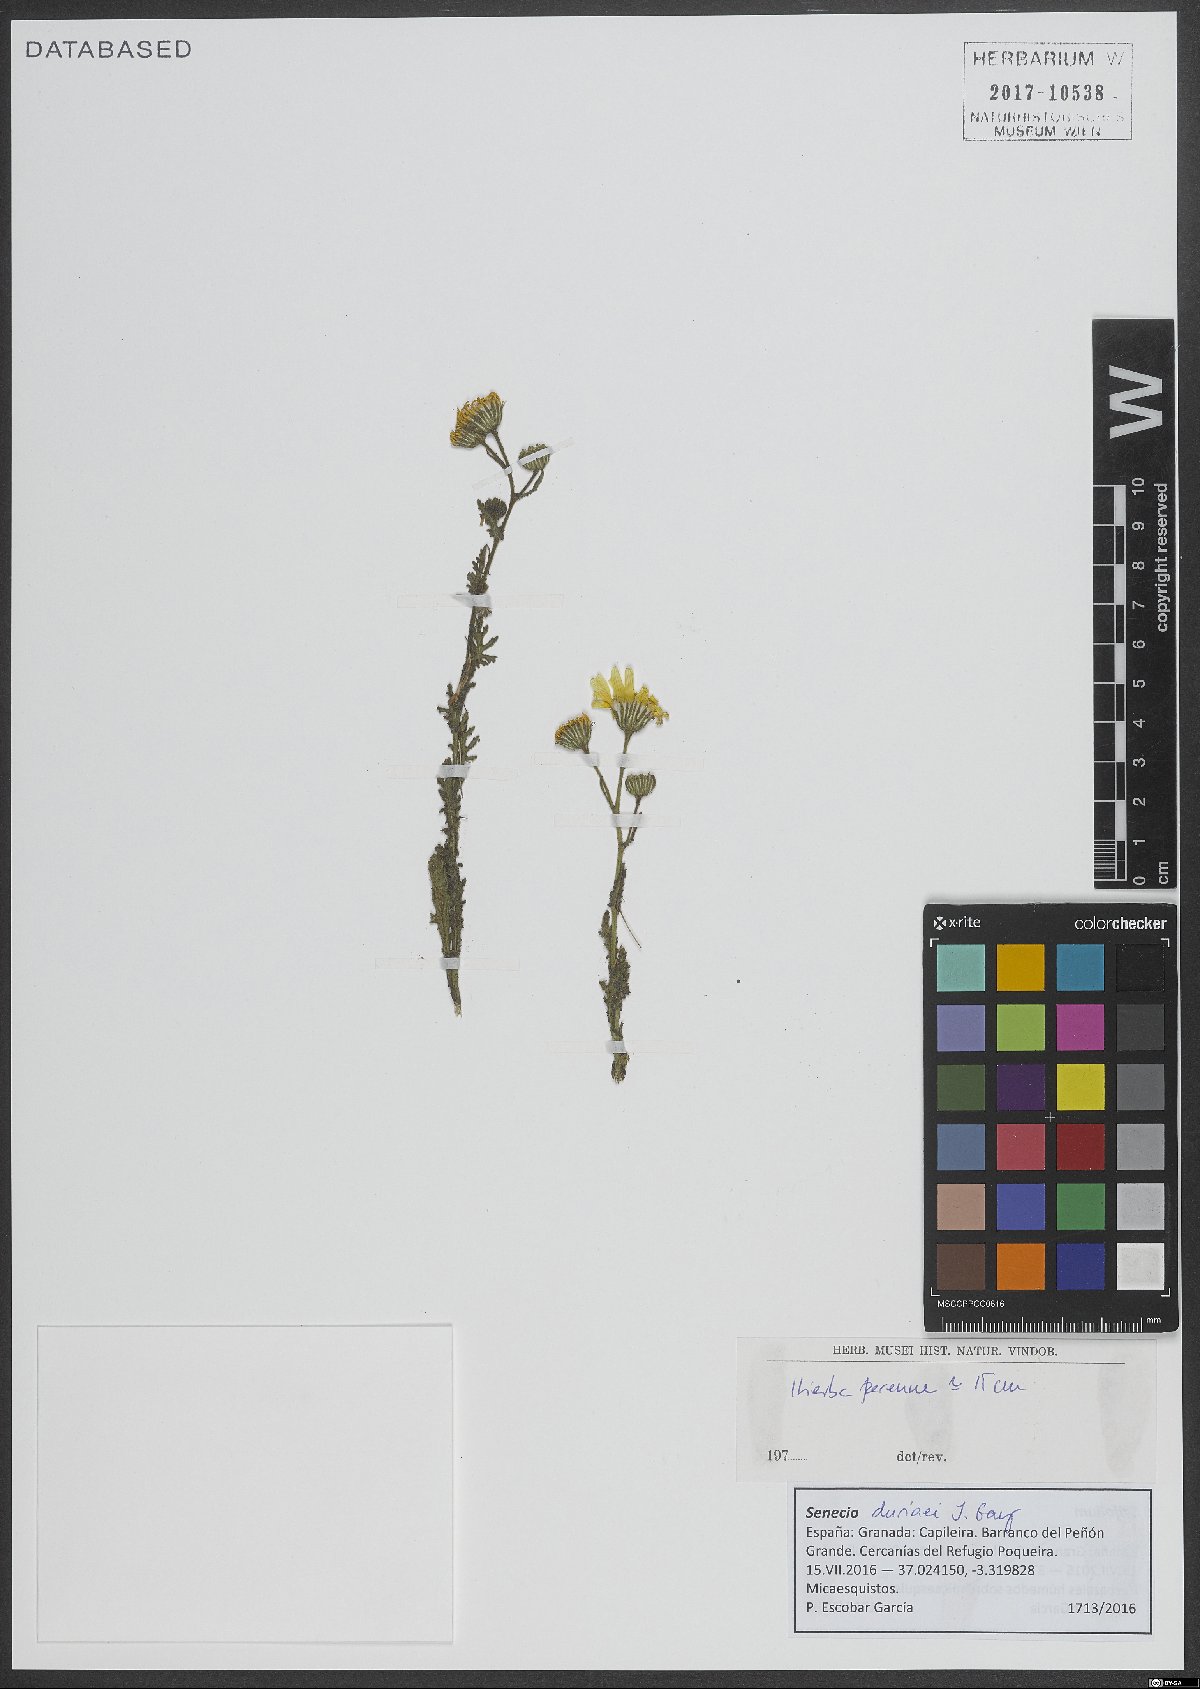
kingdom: Plantae
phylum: Tracheophyta
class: Magnoliopsida
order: Asterales
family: Asteraceae
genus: Senecio
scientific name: Senecio duriaei
